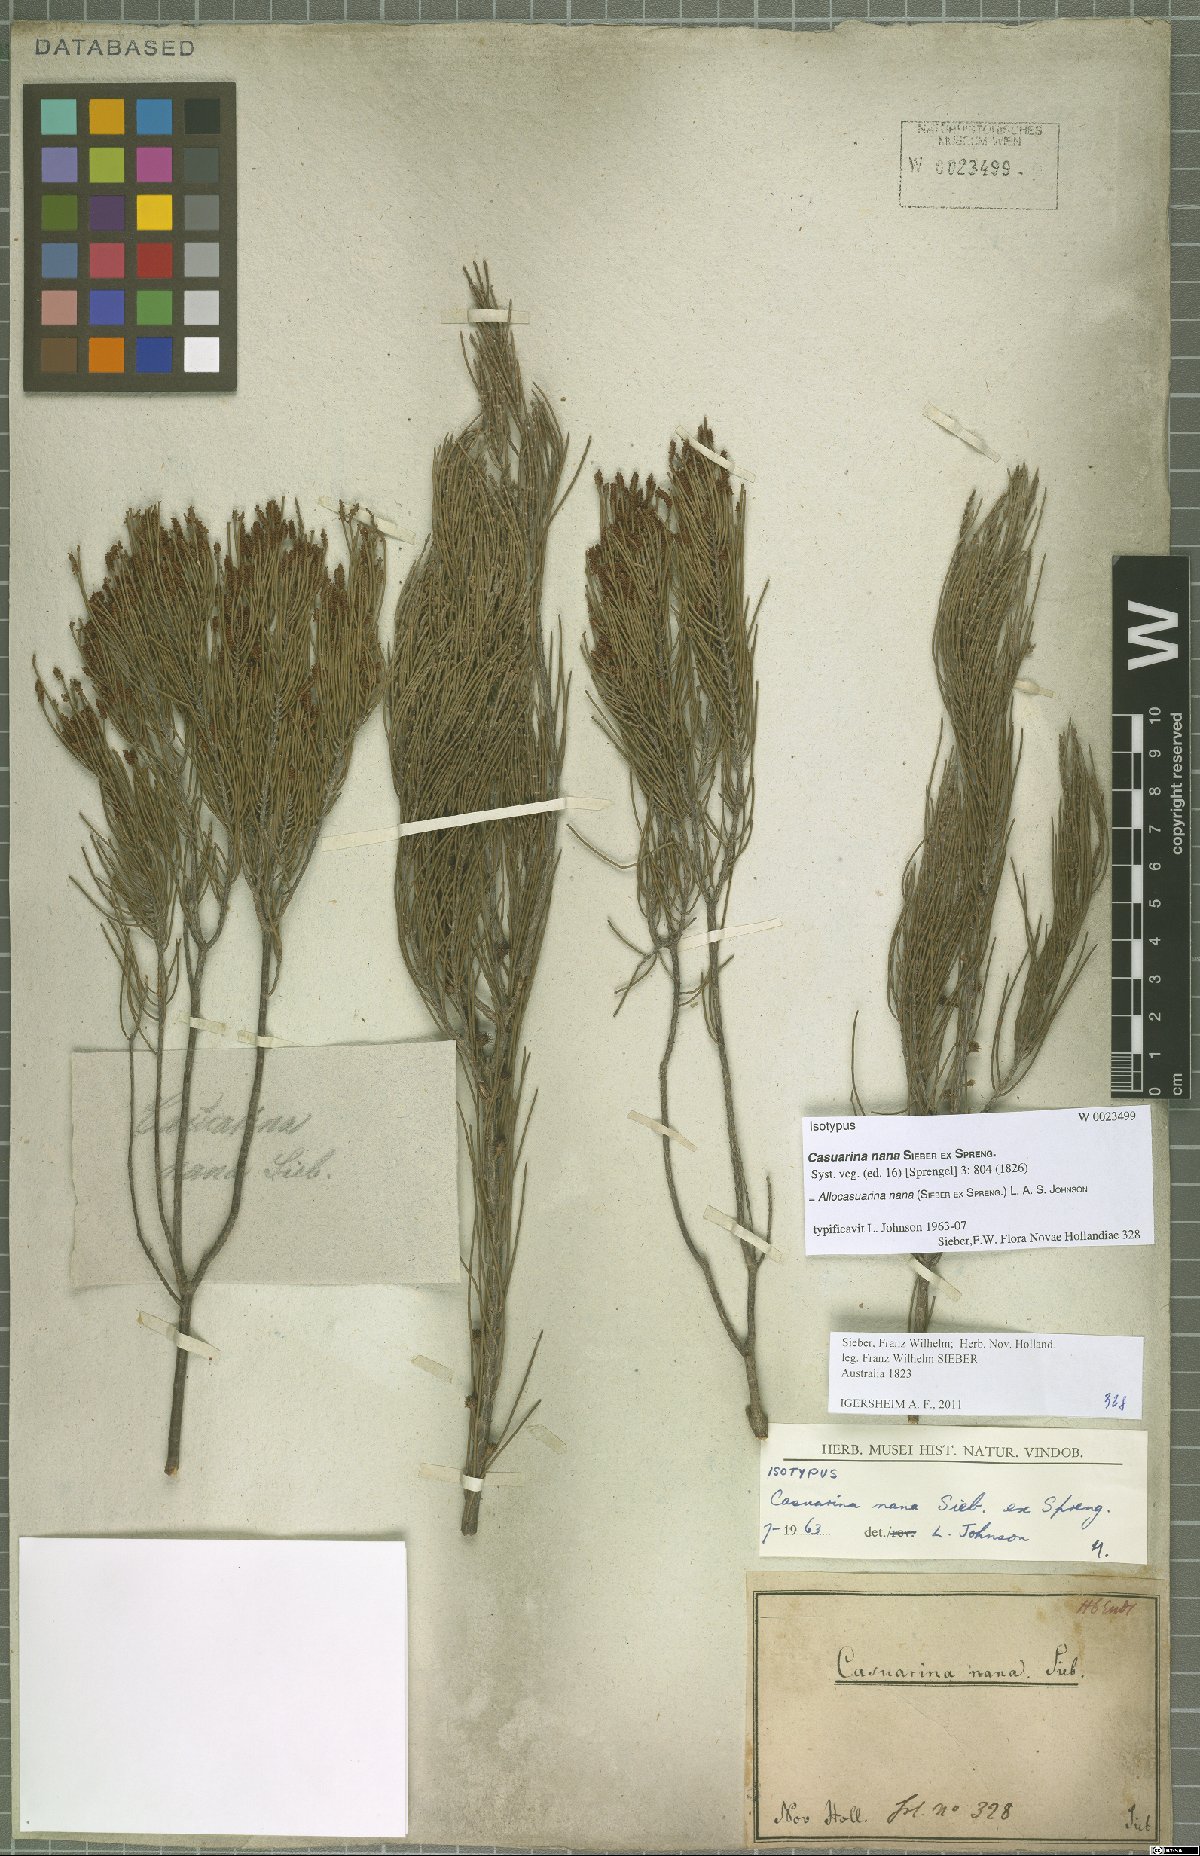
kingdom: Plantae
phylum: Tracheophyta
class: Magnoliopsida
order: Fagales
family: Casuarinaceae
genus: Allocasuarina
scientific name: Allocasuarina nana
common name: Stunted she-oak
